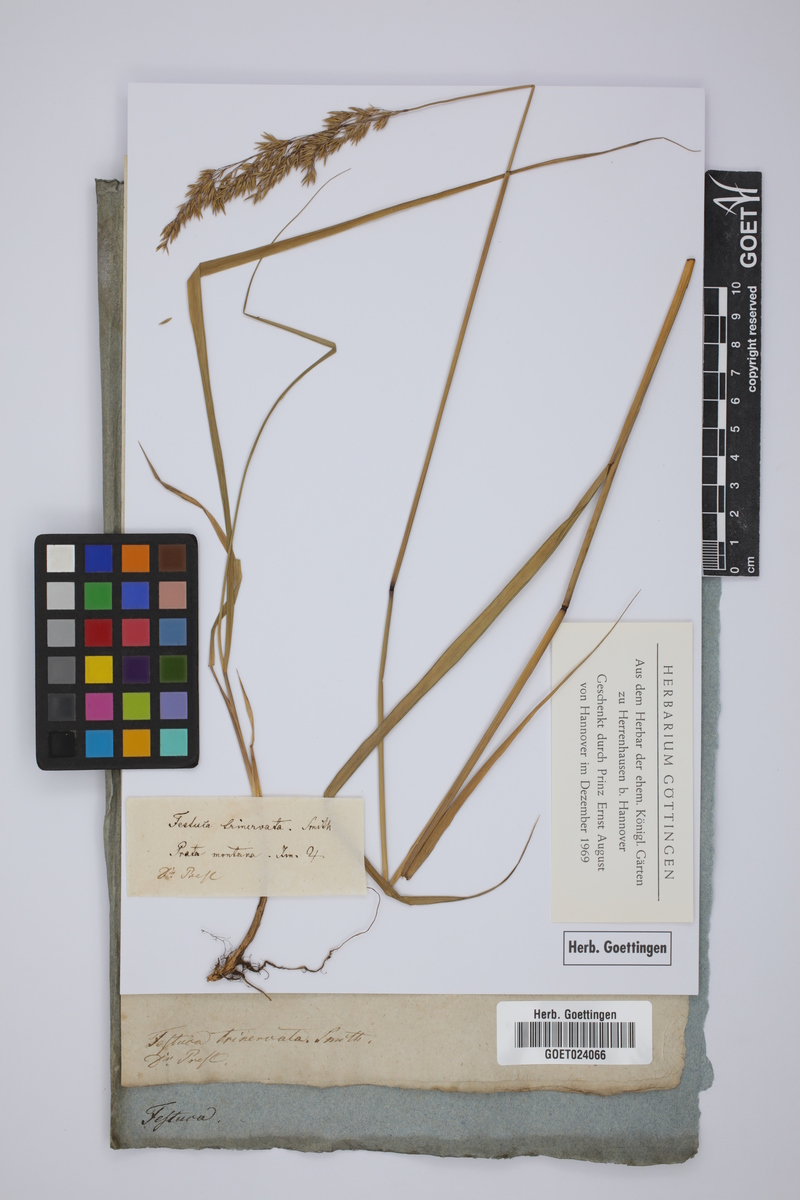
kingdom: Plantae
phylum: Tracheophyta
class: Liliopsida
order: Poales
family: Poaceae
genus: Festuca
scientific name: Festuca
